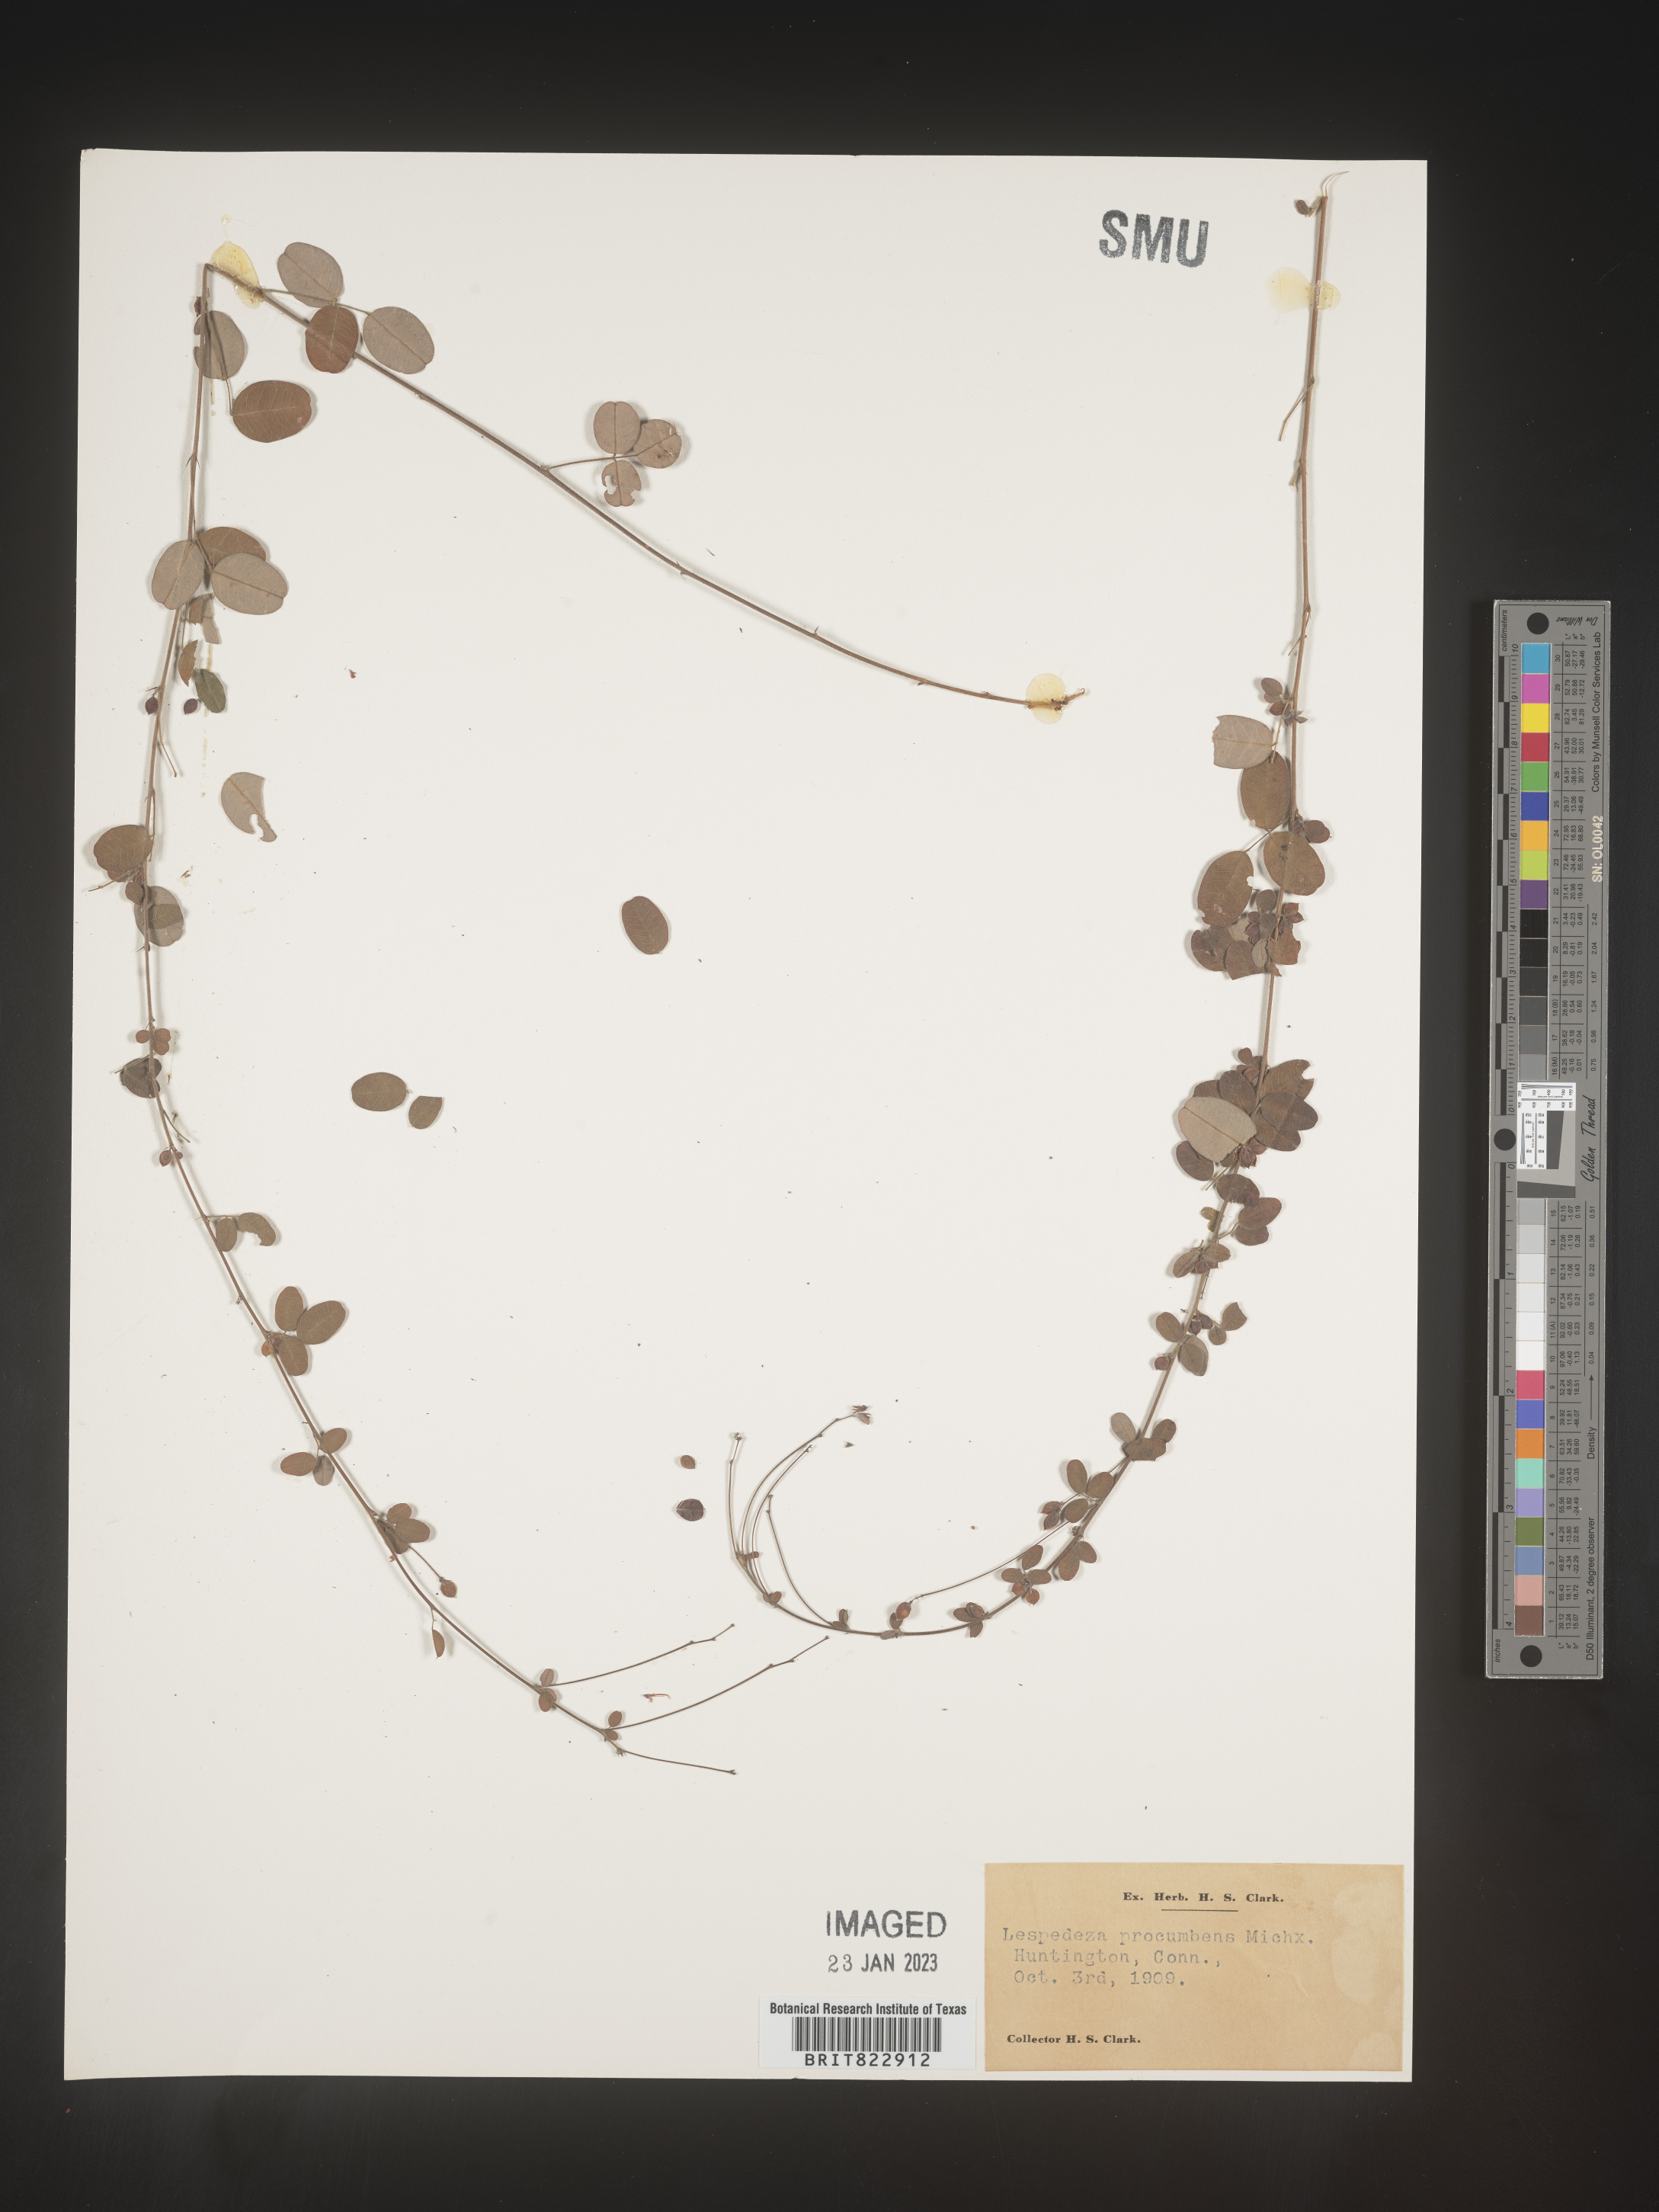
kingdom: Plantae
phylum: Tracheophyta
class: Magnoliopsida
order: Fabales
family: Fabaceae
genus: Lespedeza
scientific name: Lespedeza procumbens
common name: Downy trailing bush-clover
